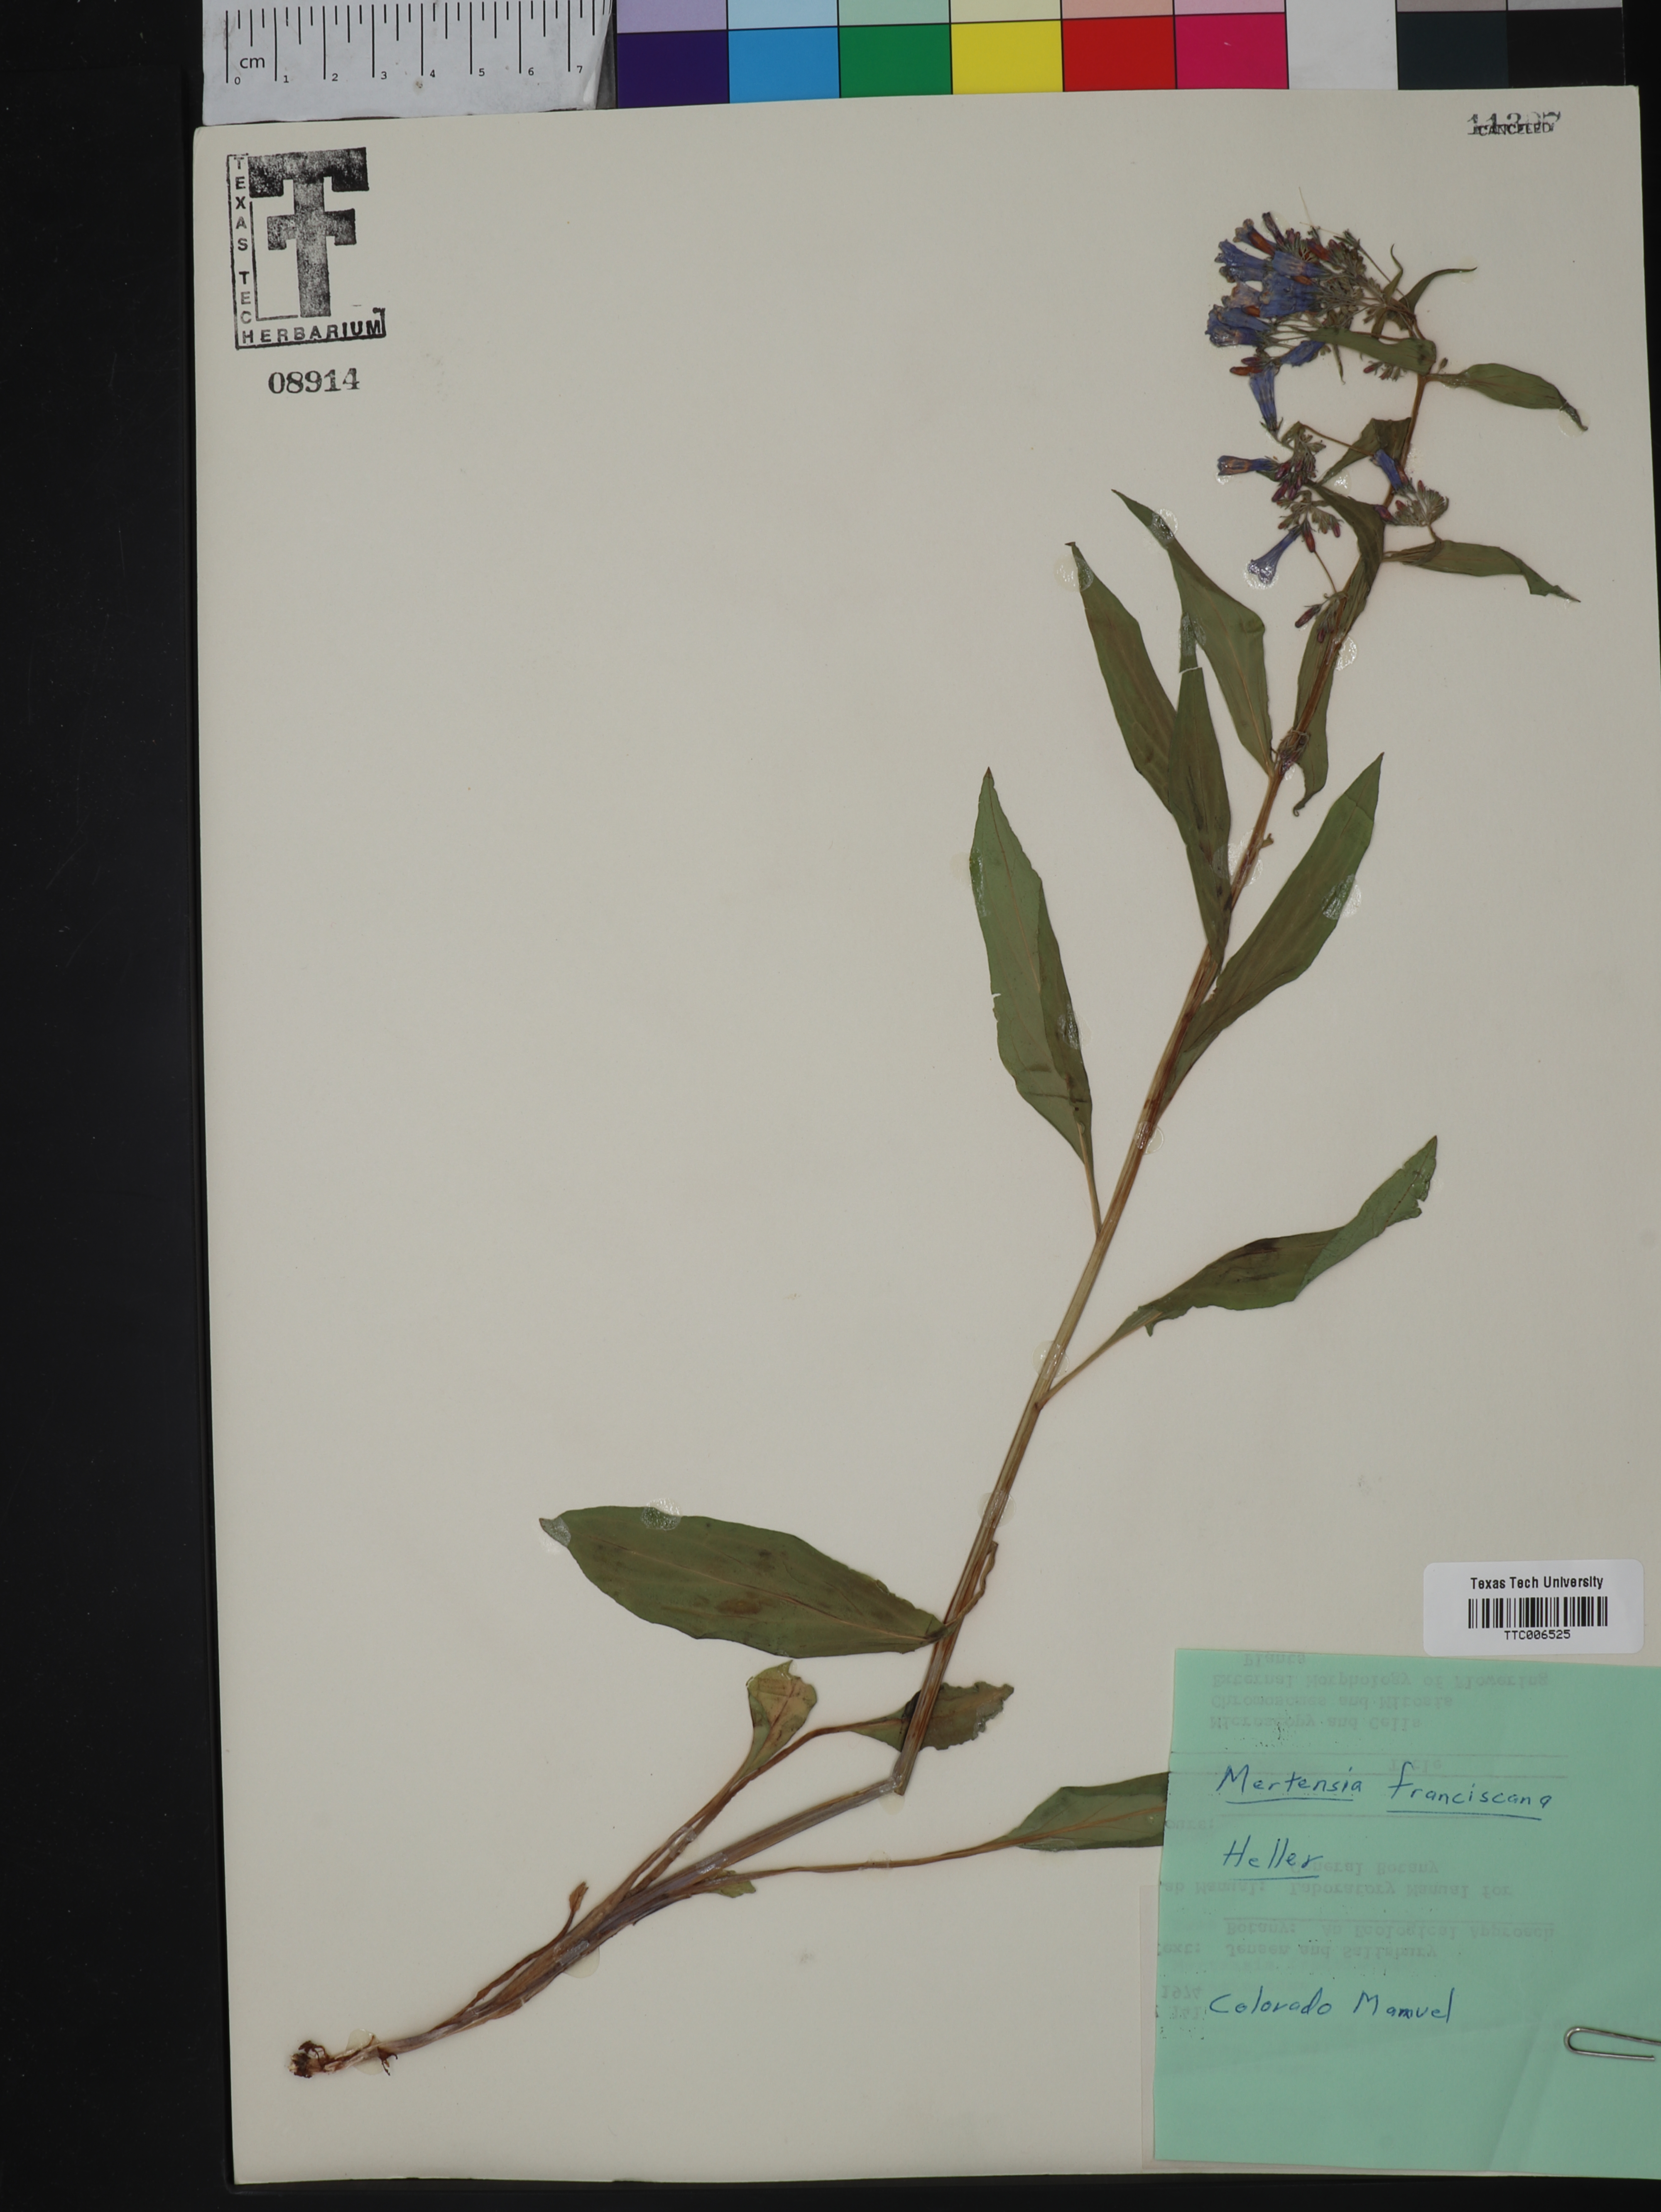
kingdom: Plantae
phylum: Tracheophyta
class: Magnoliopsida
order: Boraginales
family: Boraginaceae
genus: Mertensia
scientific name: Mertensia franciscana
